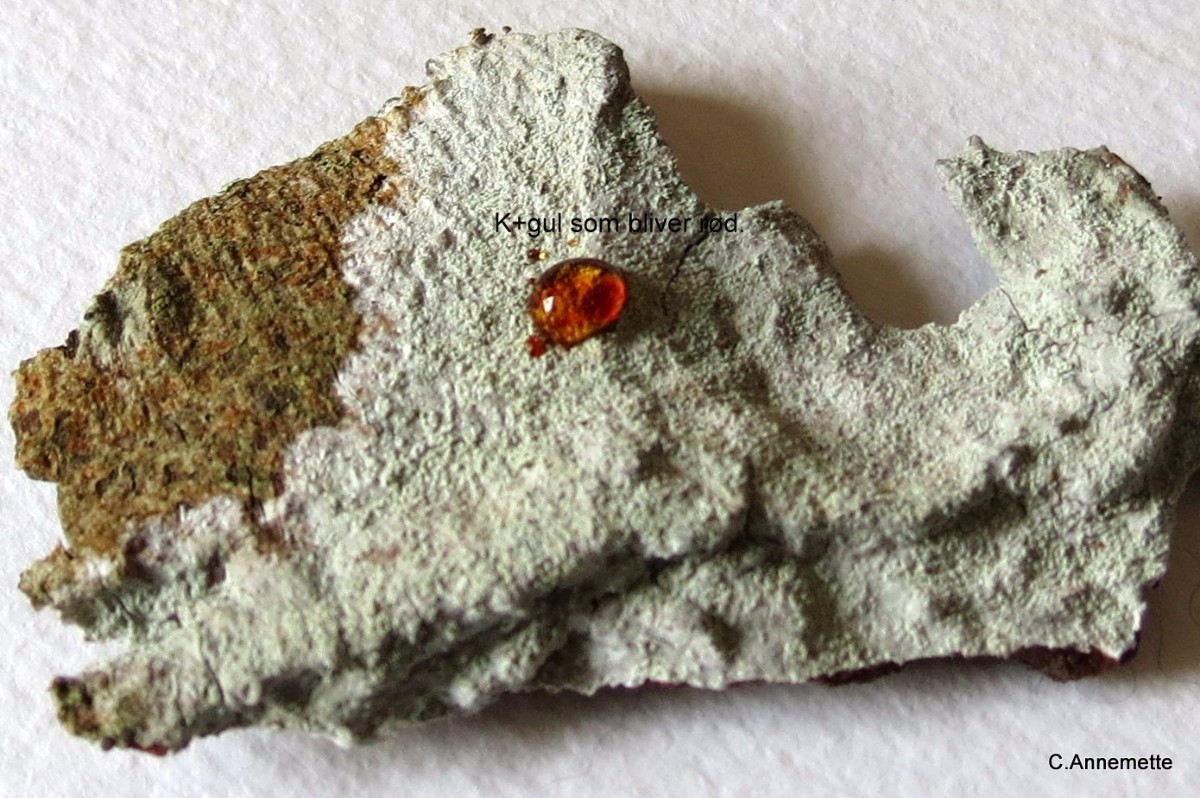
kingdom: Fungi
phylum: Ascomycota
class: Lecanoromycetes
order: Ostropales
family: Phlyctidaceae
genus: Phlyctis
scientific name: Phlyctis argena
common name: almindelig sølvlav
